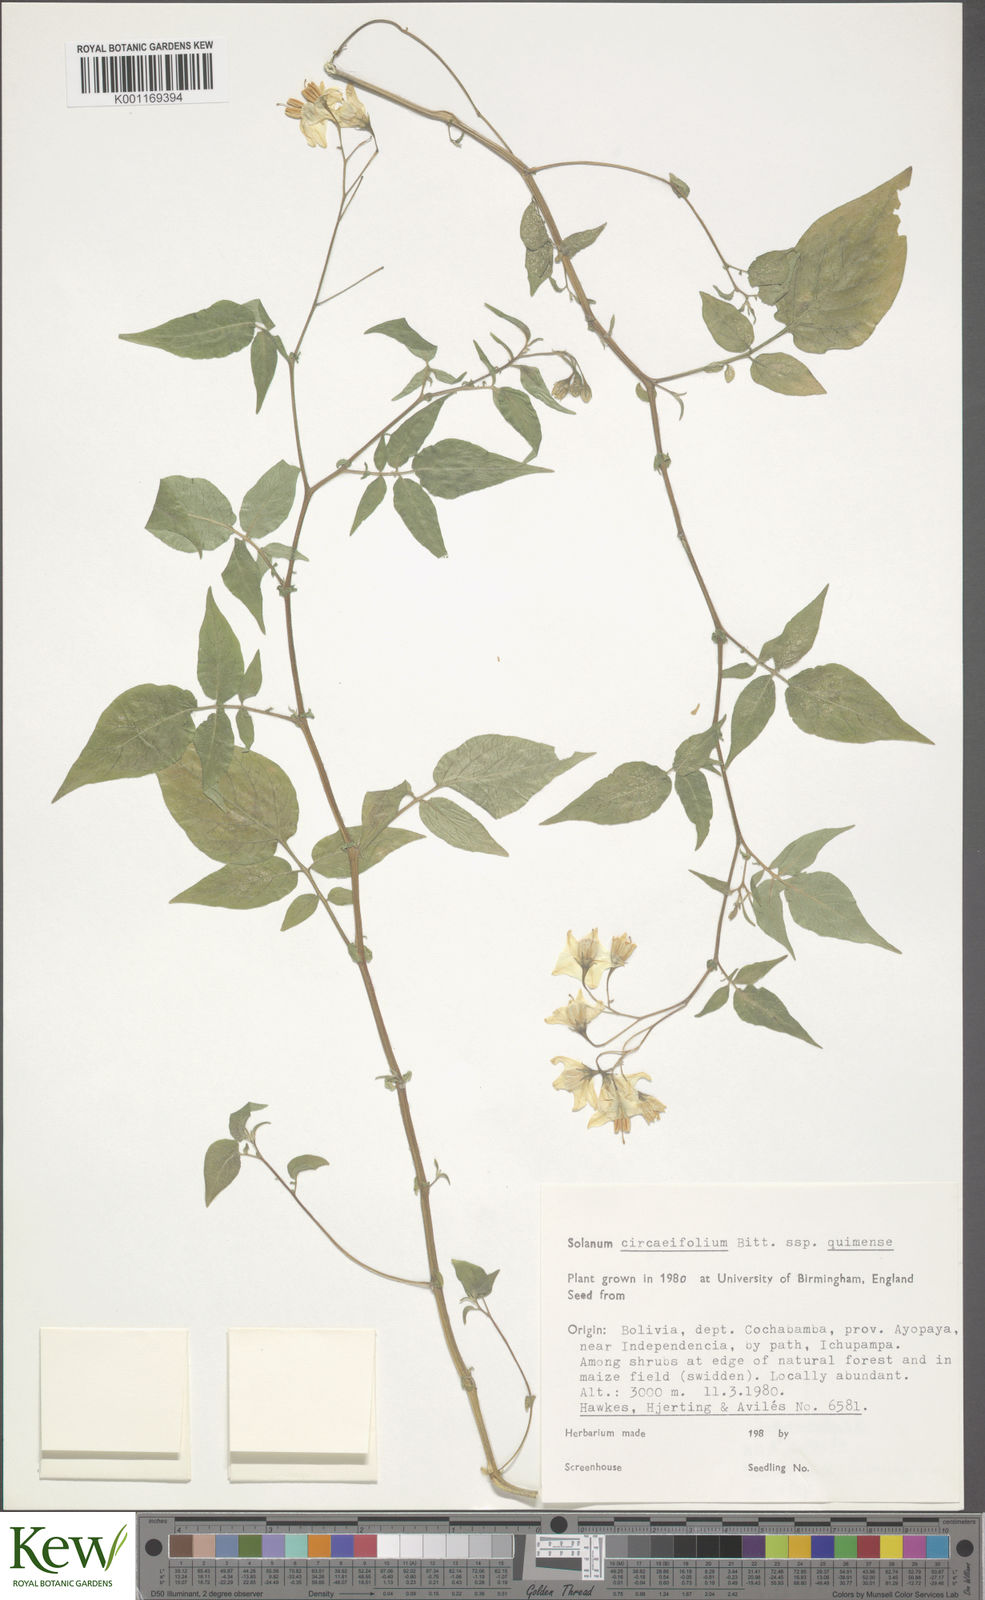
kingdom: Plantae
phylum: Tracheophyta
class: Magnoliopsida
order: Solanales
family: Solanaceae
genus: Solanum
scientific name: Solanum stipuloideum
